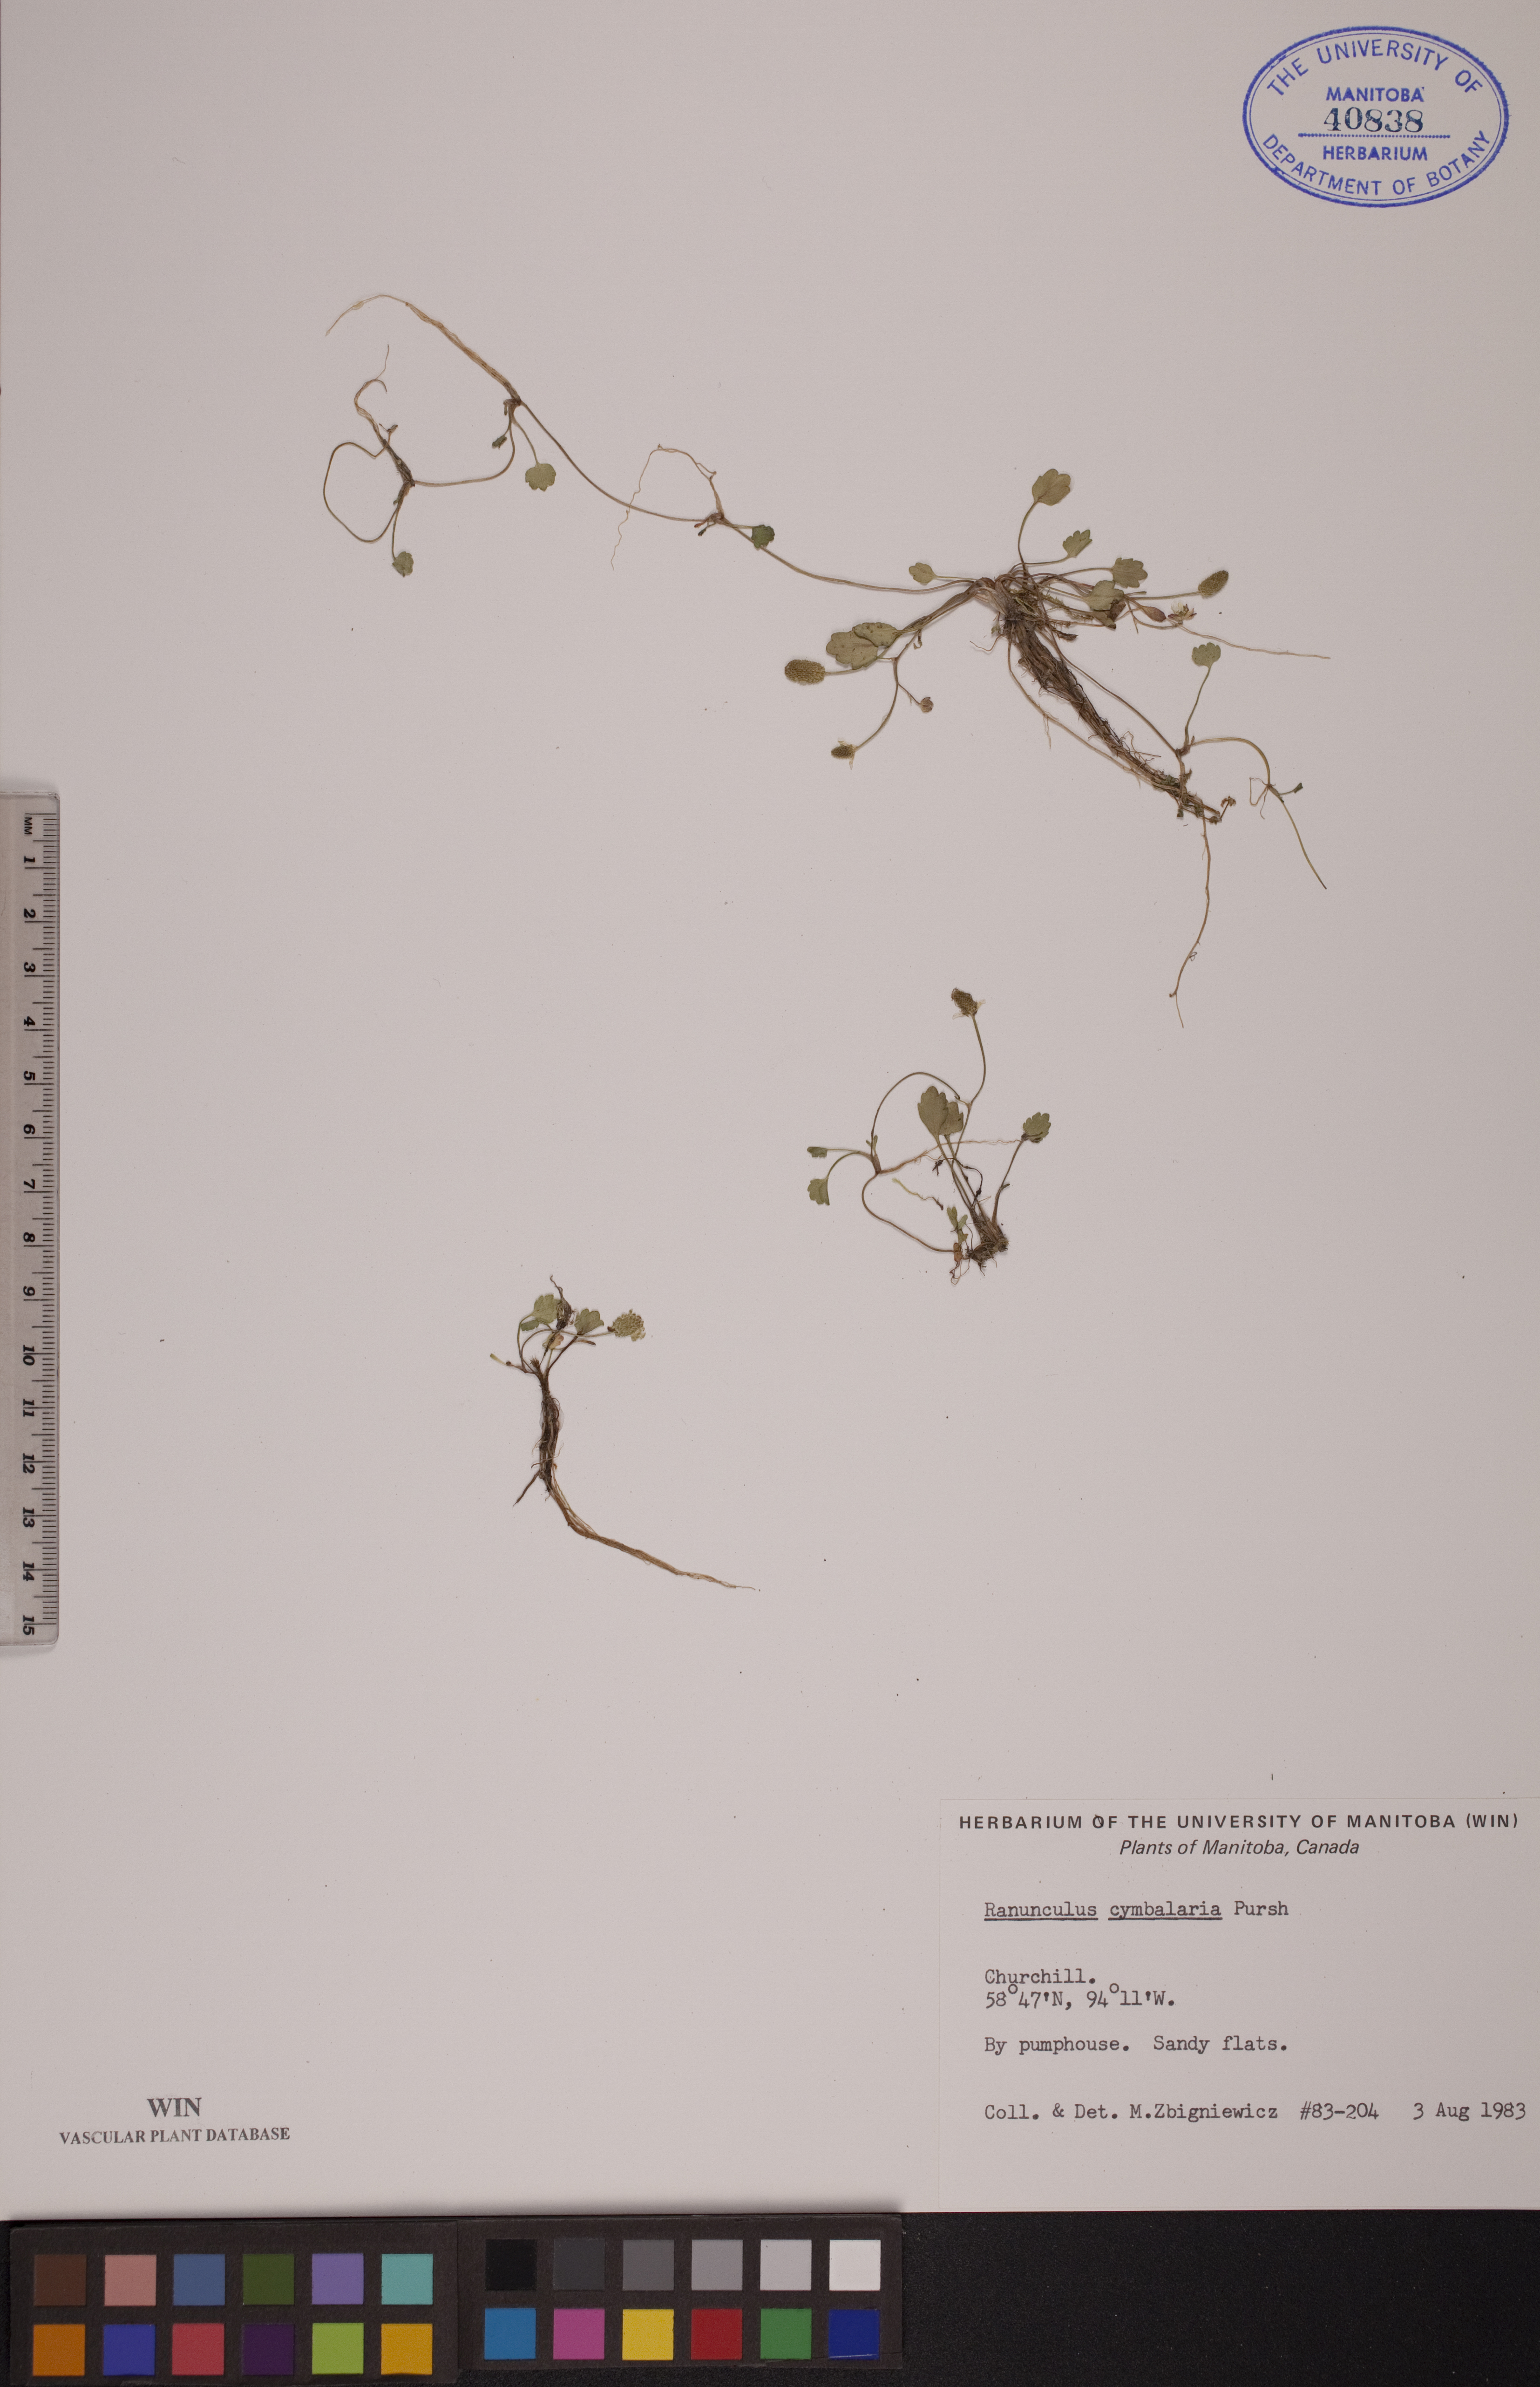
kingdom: Plantae
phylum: Tracheophyta
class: Magnoliopsida
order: Ranunculales
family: Ranunculaceae
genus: Halerpestes
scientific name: Halerpestes cymbalaria
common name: Seaside crowfoot
